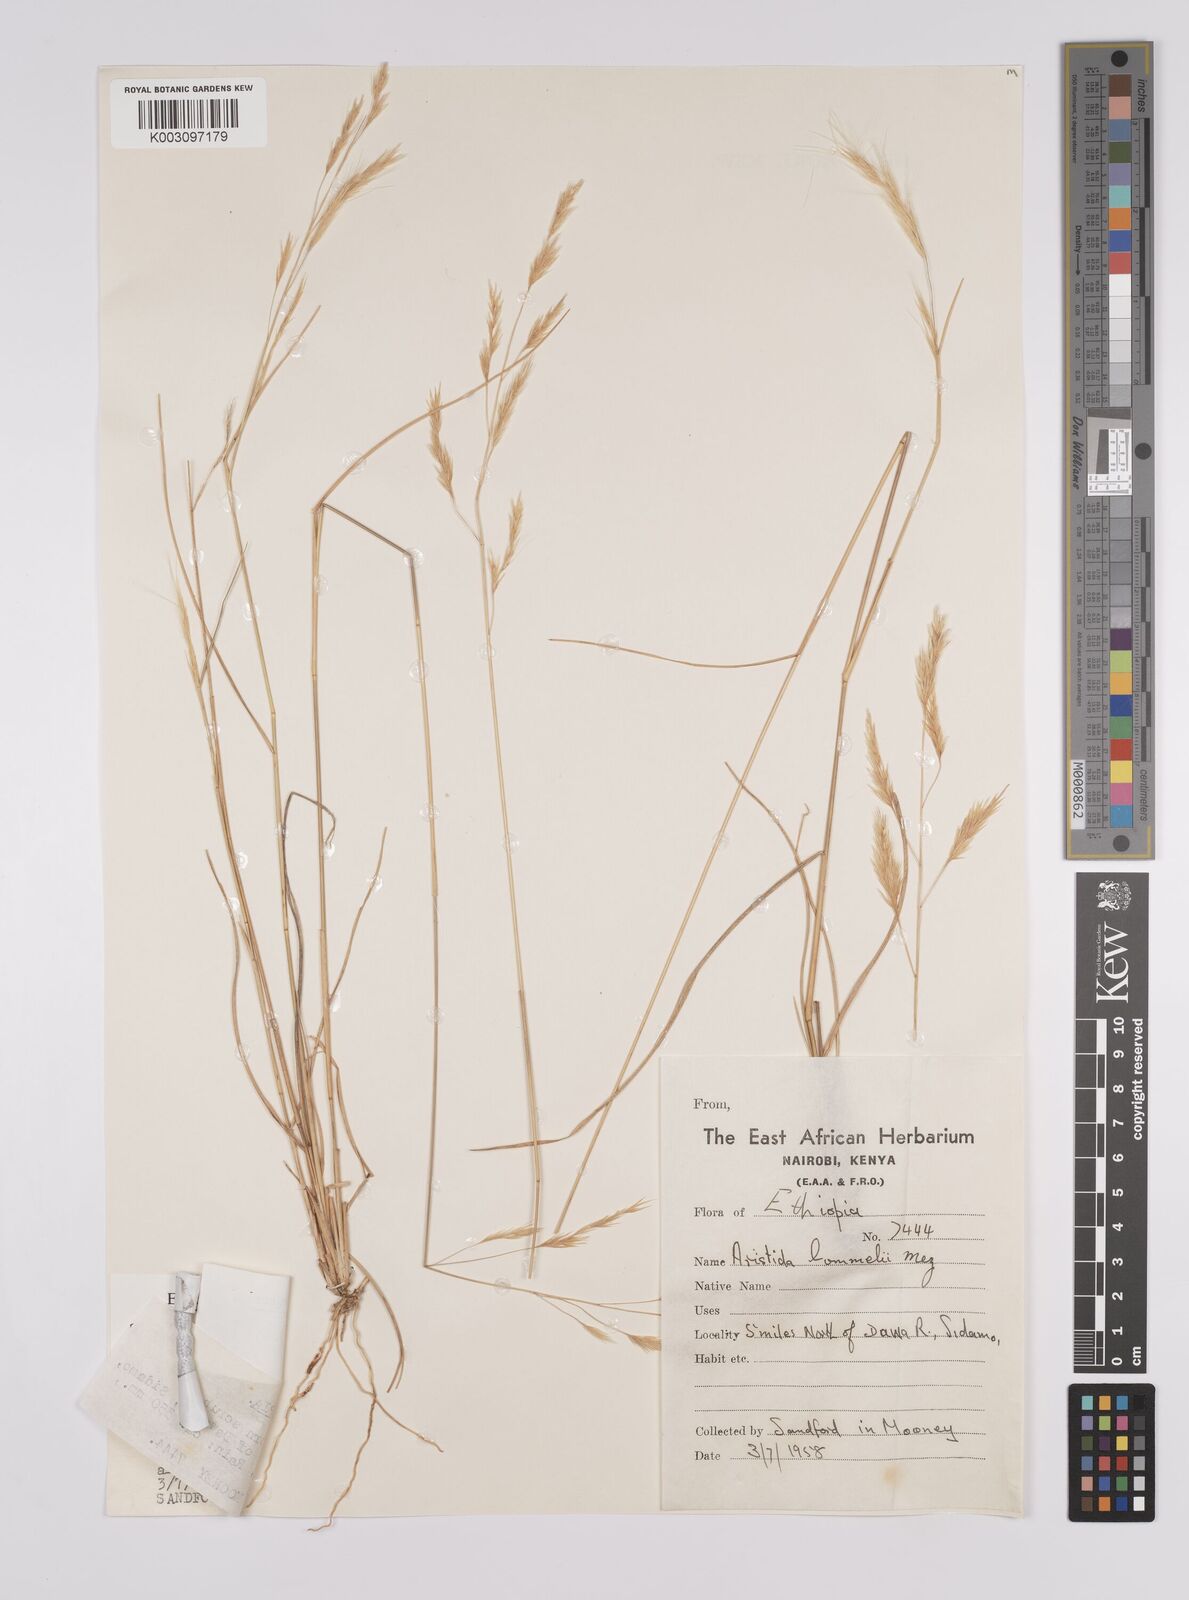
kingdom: Plantae
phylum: Tracheophyta
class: Liliopsida
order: Poales
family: Poaceae
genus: Aristida
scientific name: Aristida barbicollis
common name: Spreading prickle grass
